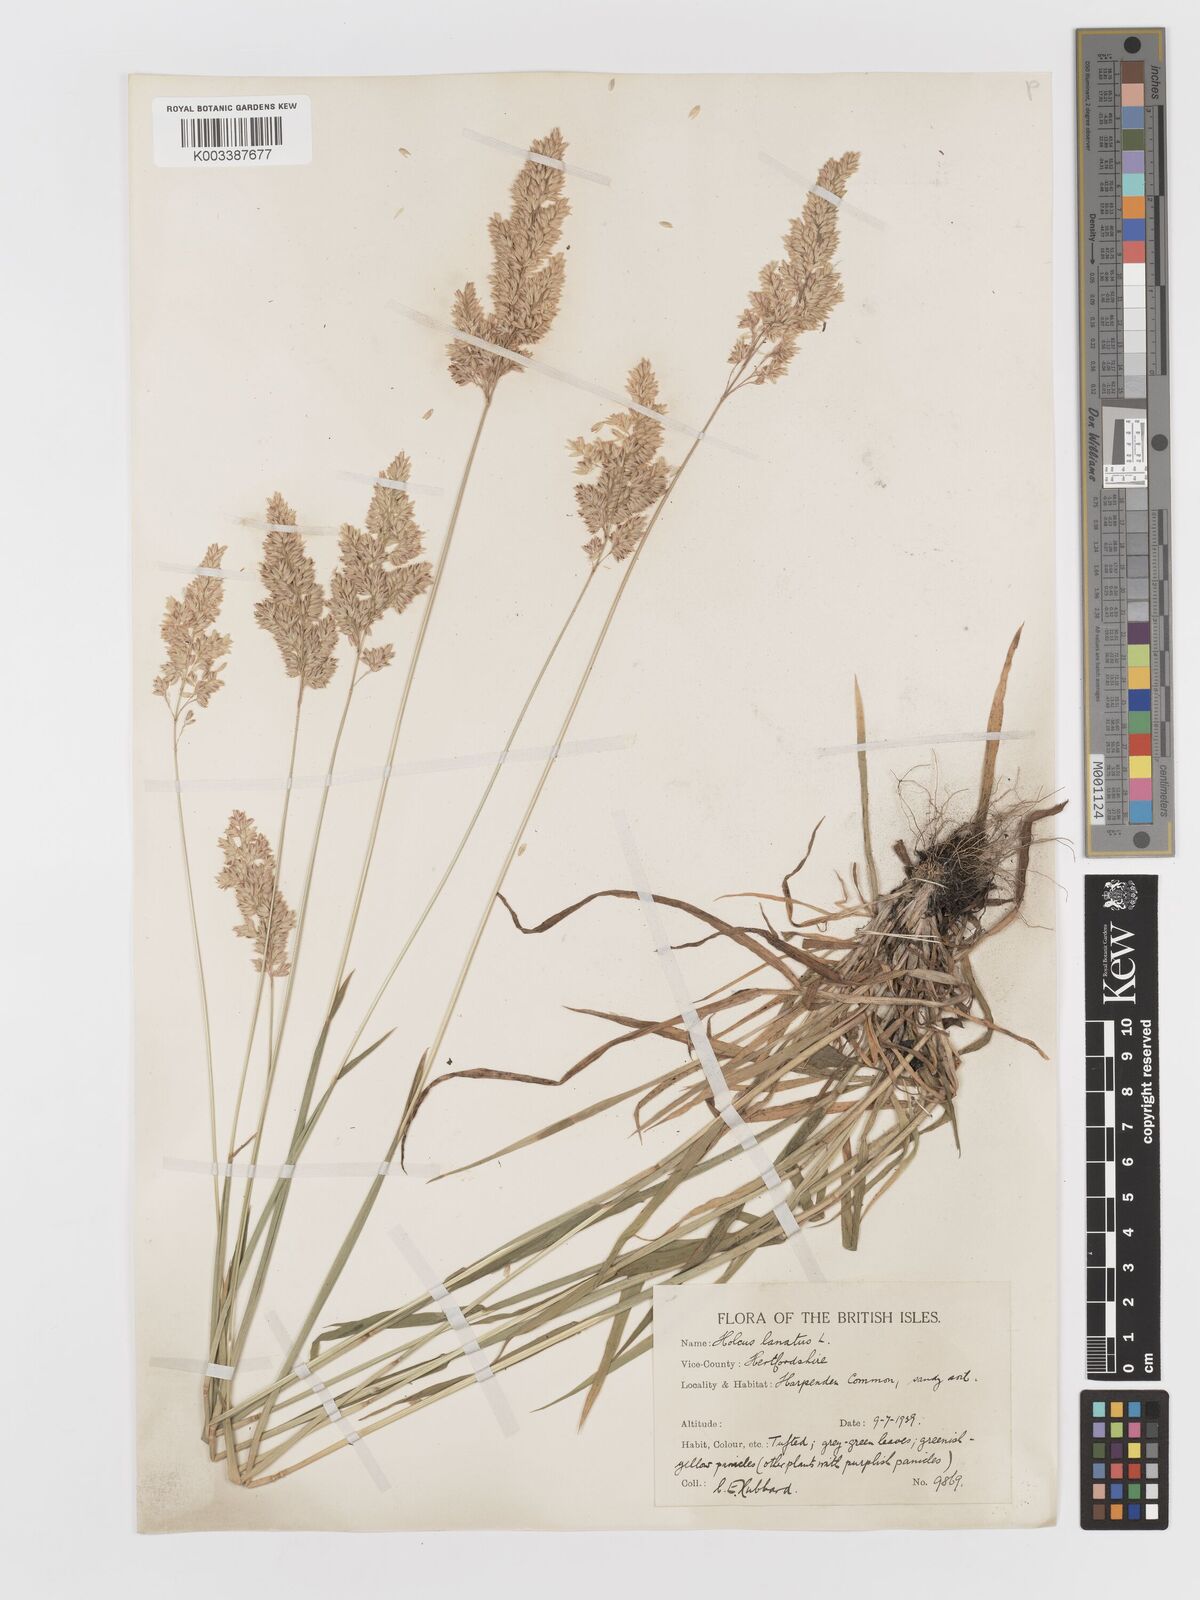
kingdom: Plantae
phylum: Tracheophyta
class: Liliopsida
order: Poales
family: Poaceae
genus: Holcus
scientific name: Holcus lanatus
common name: Yorkshire-fog
